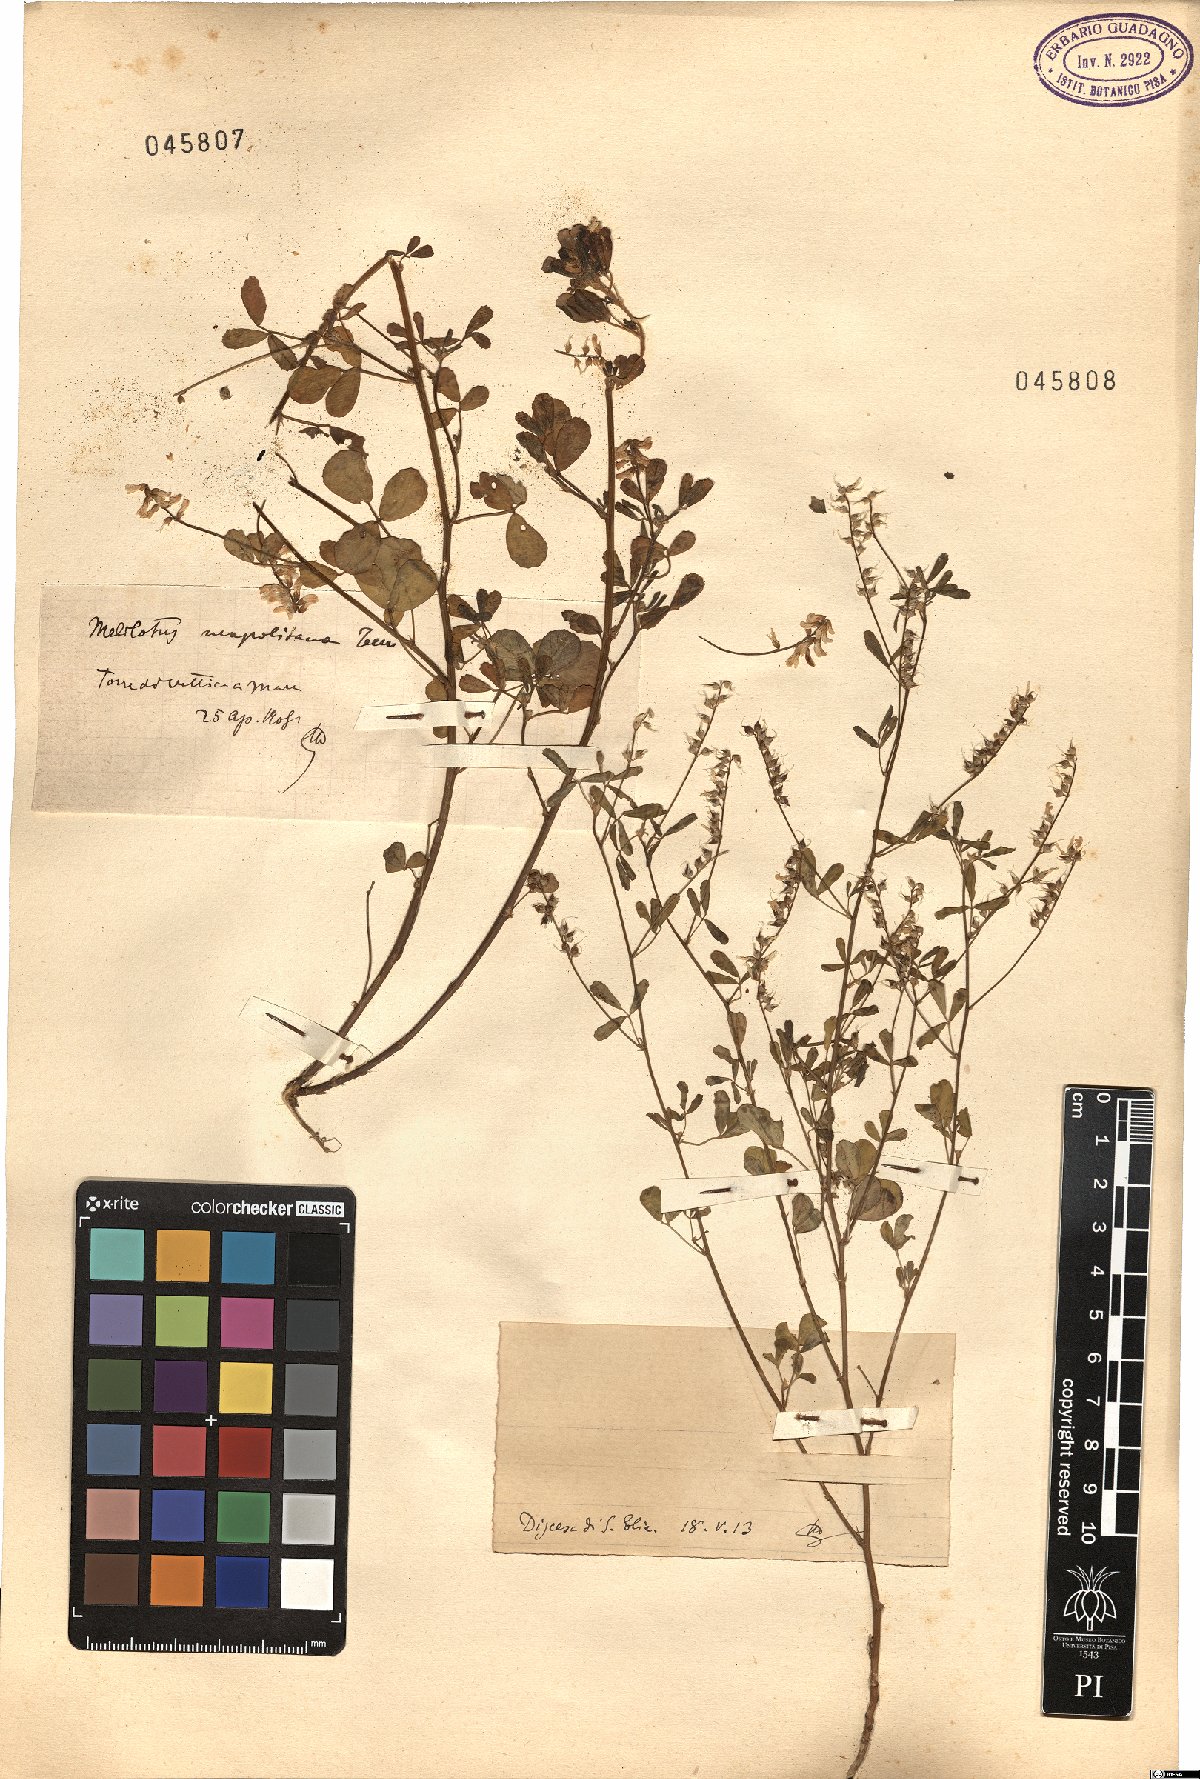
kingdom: Plantae
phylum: Tracheophyta
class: Magnoliopsida
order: Fabales
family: Fabaceae
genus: Melilotus
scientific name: Melilotus
